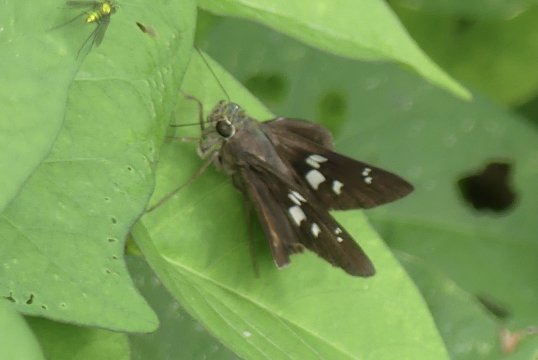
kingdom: Animalia
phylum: Arthropoda
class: Insecta
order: Lepidoptera
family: Hesperiidae
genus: Rhinthon
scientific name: Rhinthon cubana
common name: Osca Skipper
